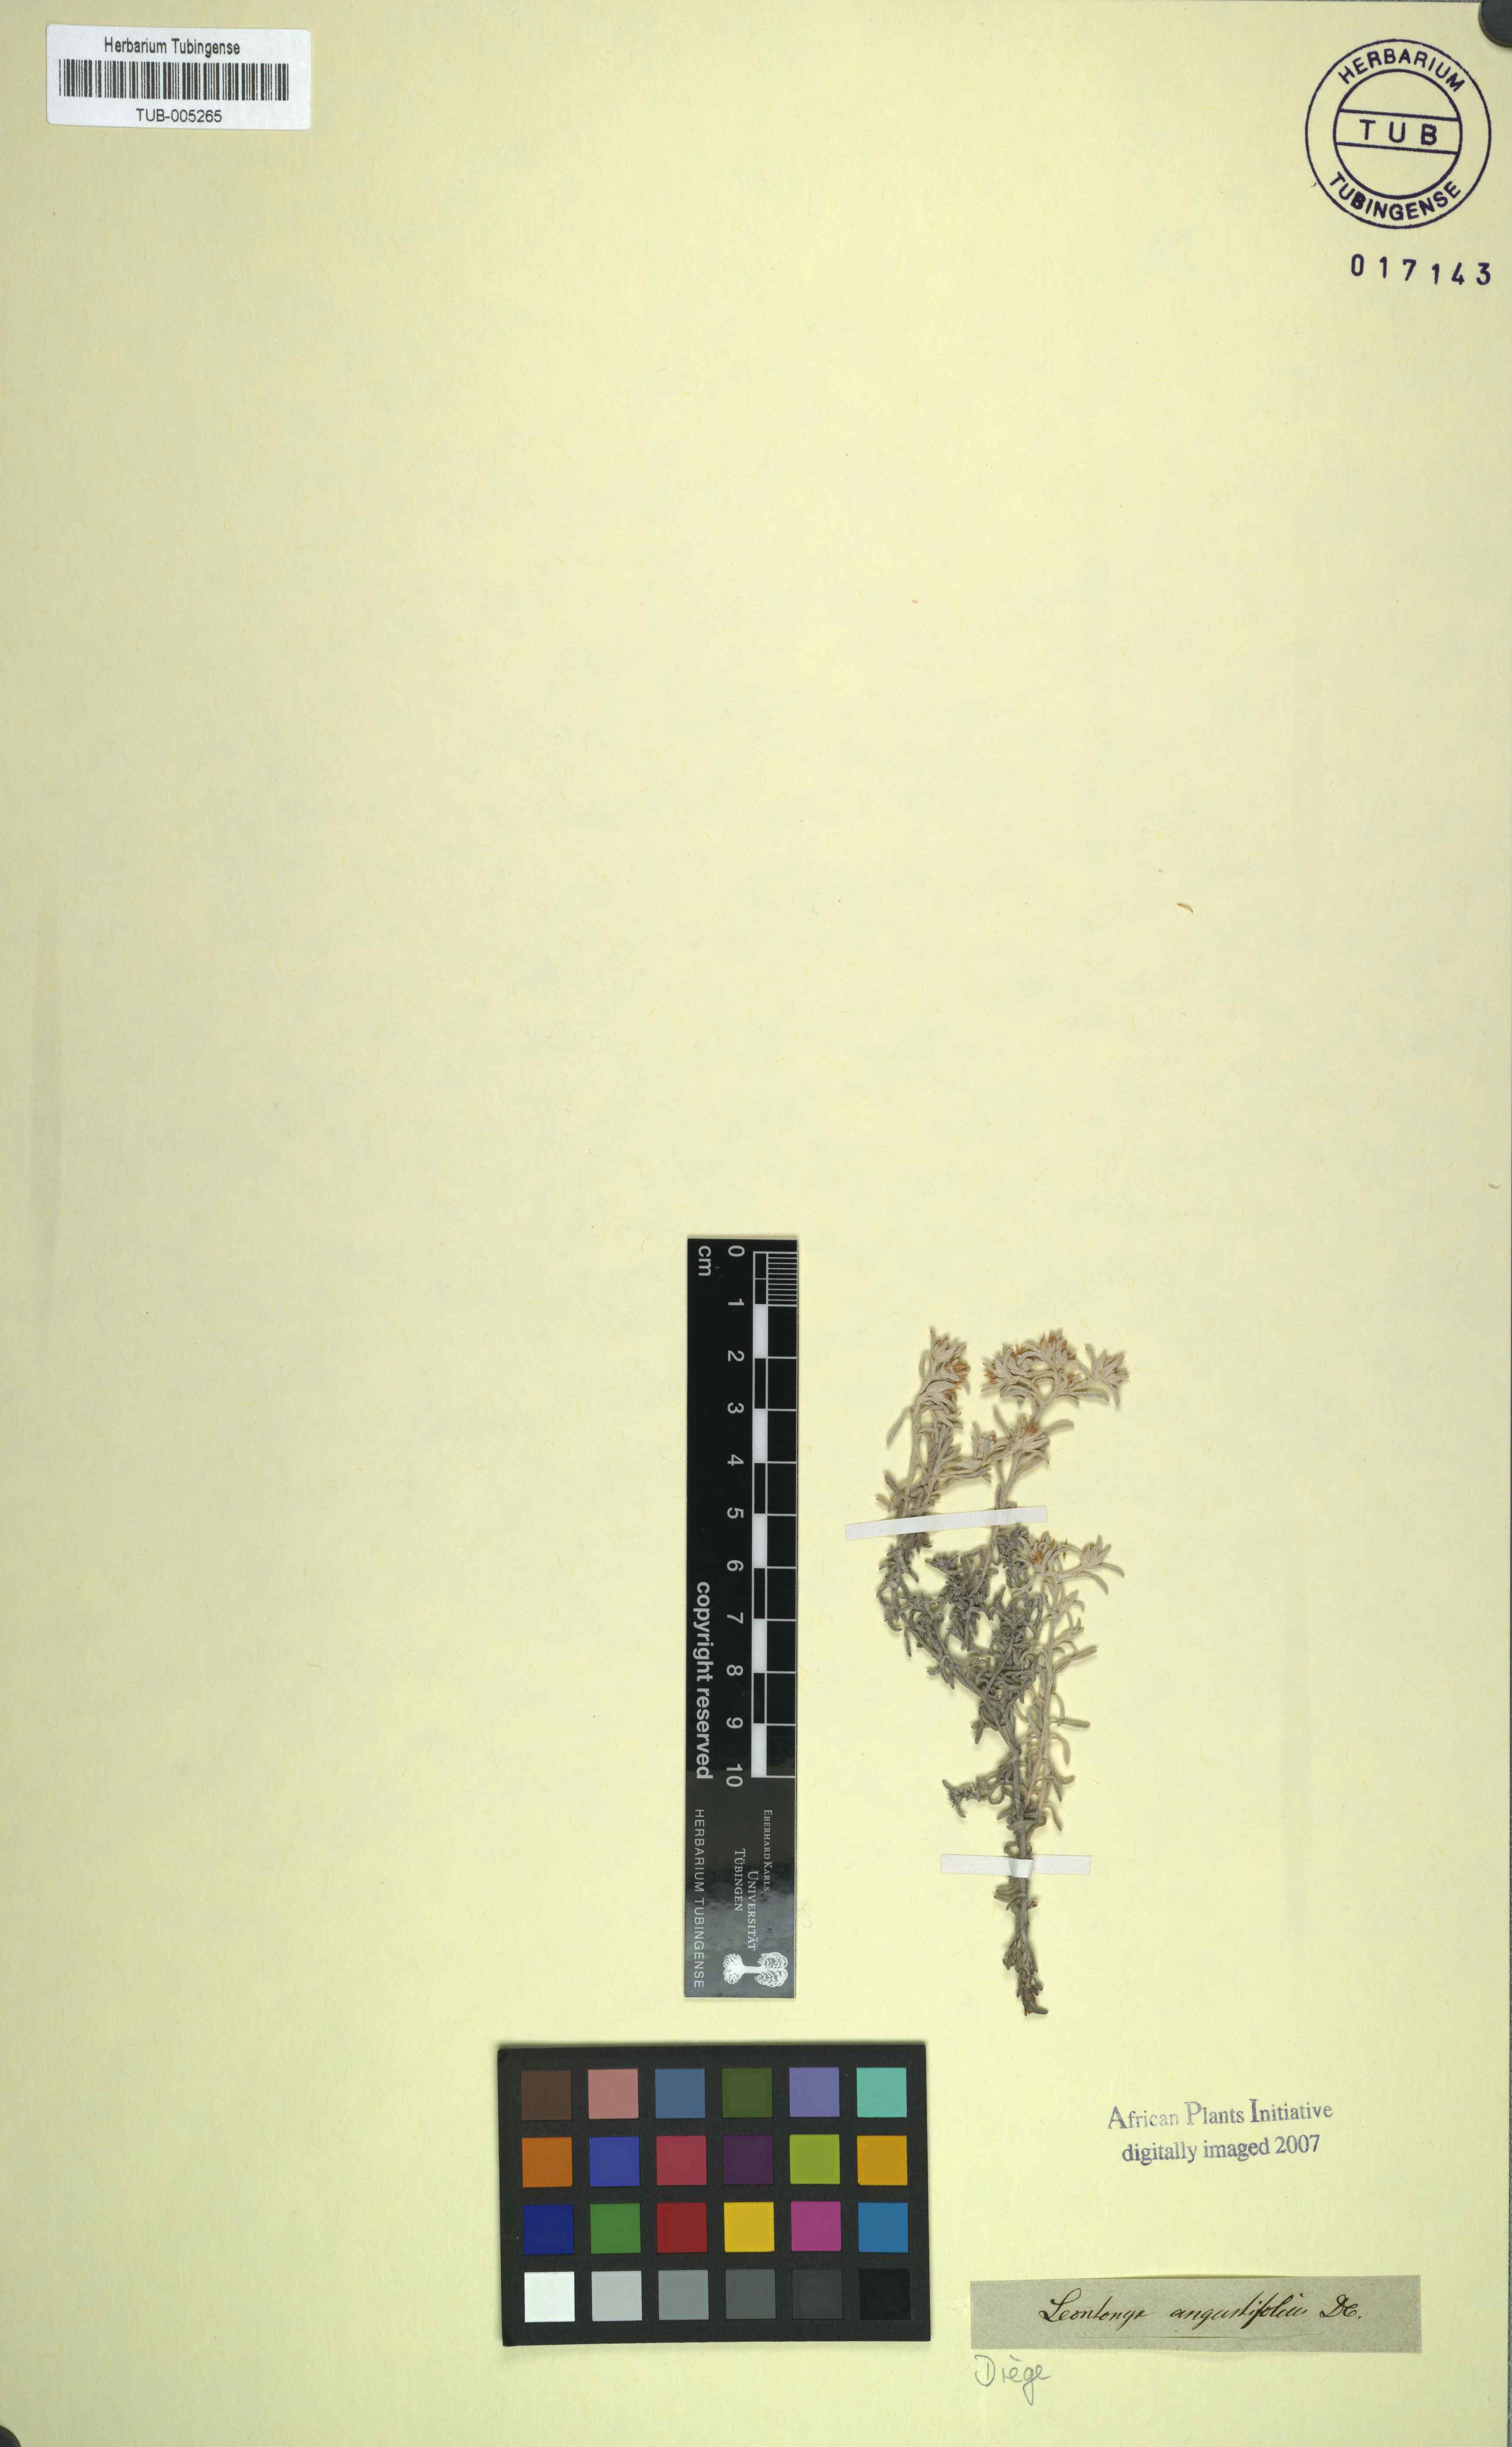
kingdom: Plantae
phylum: Tracheophyta
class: Magnoliopsida
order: Asterales
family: Asteraceae
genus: Helichrysum
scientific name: Helichrysum litorale
